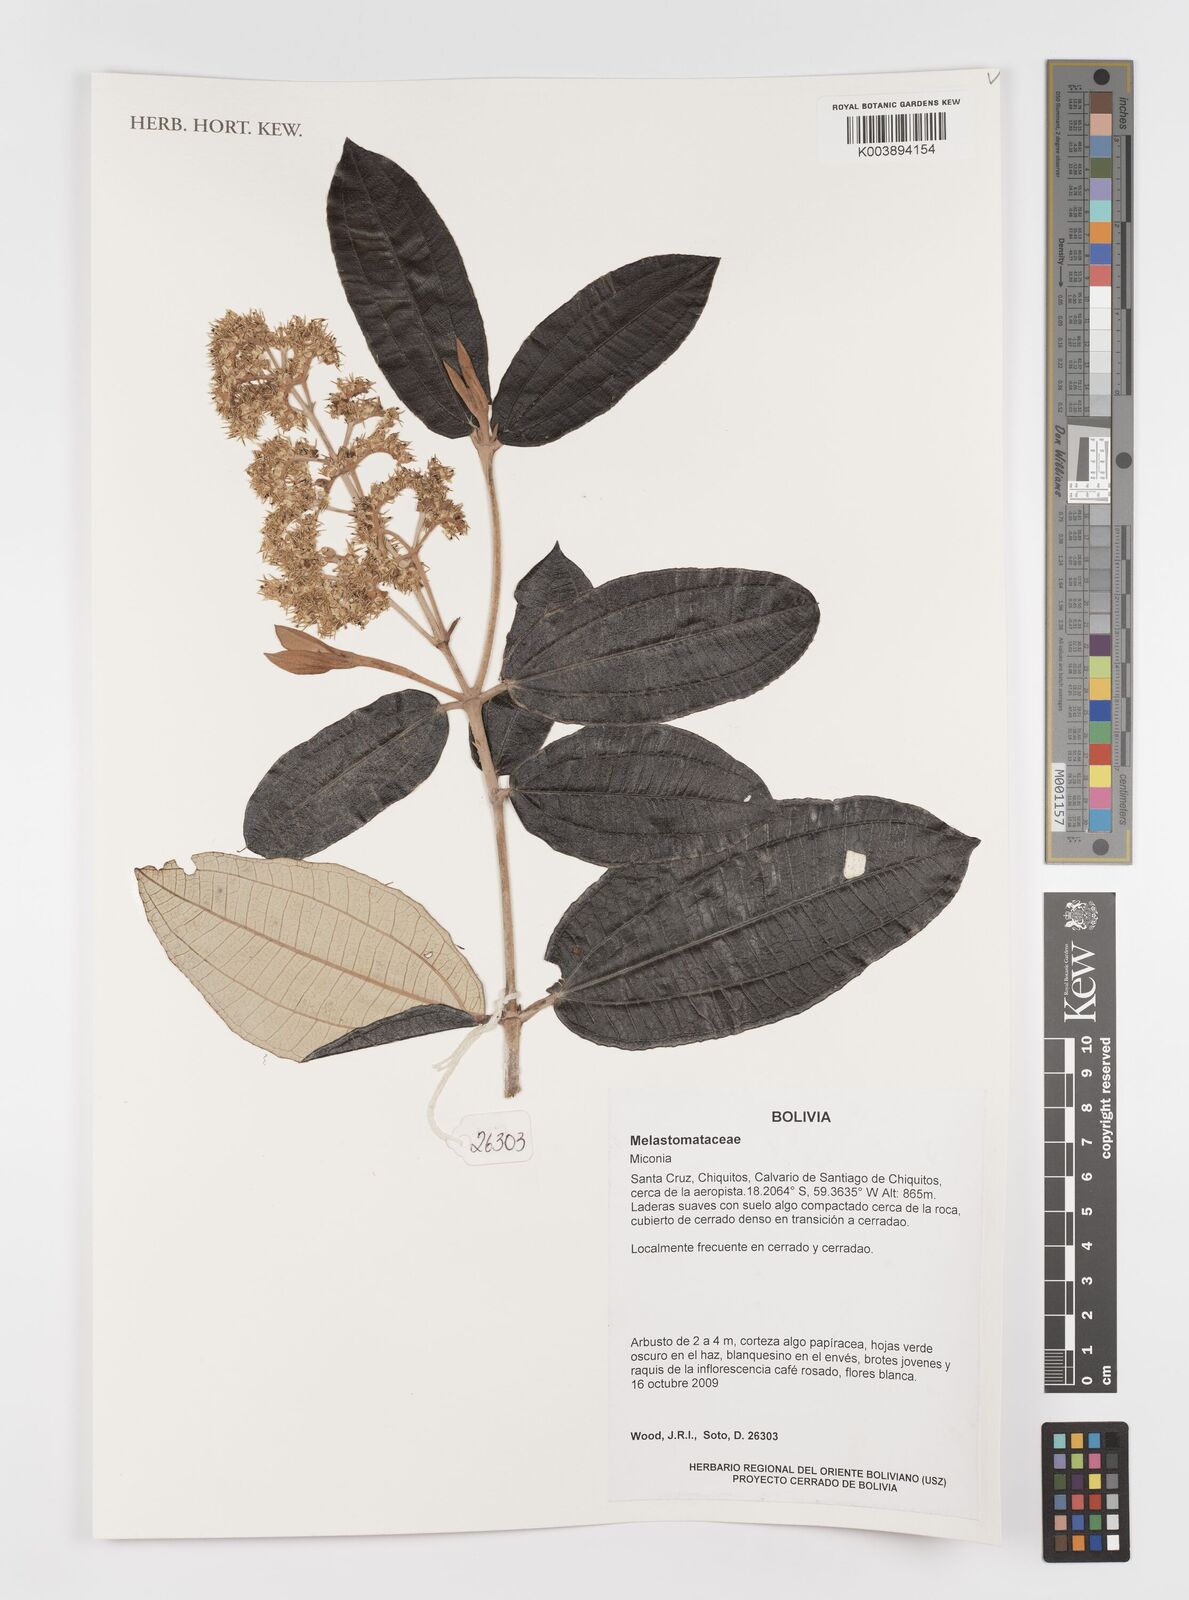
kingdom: Plantae
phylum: Tracheophyta
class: Magnoliopsida
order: Myrtales
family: Melastomataceae
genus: Miconia
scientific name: Miconia
